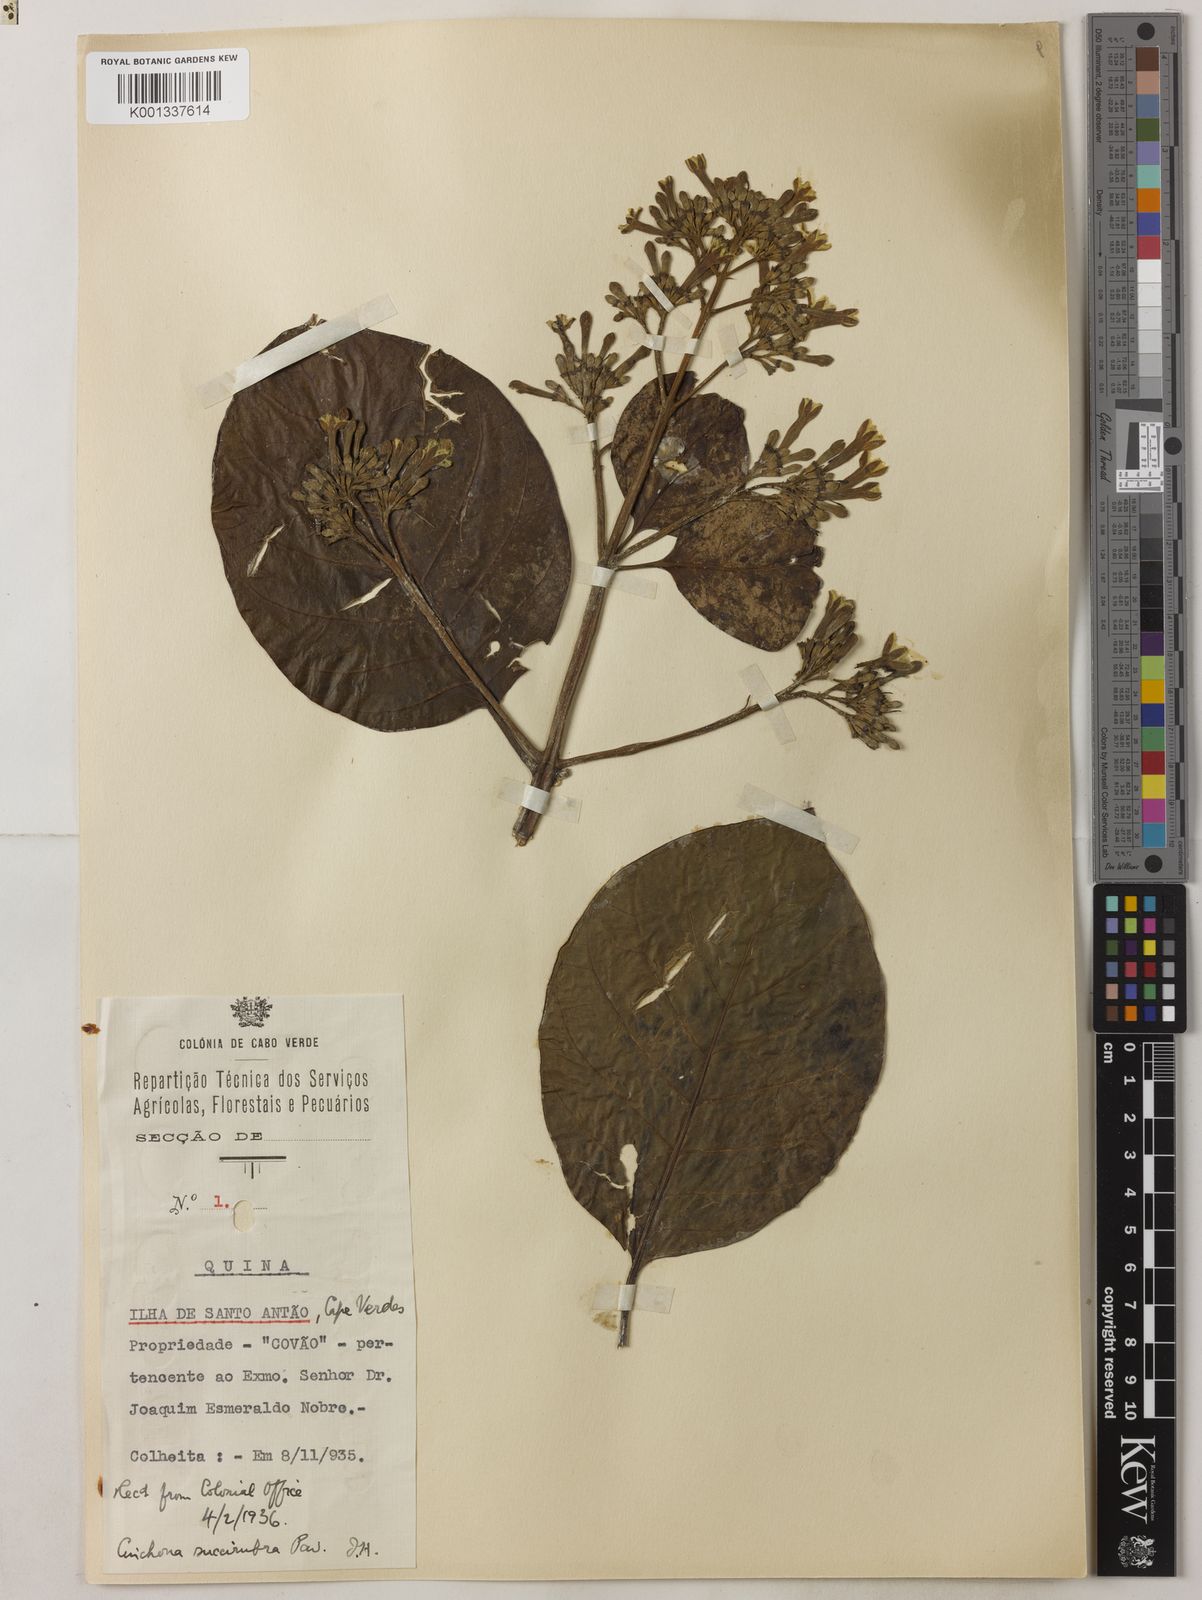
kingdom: Plantae
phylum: Tracheophyta
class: Magnoliopsida
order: Gentianales
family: Rubiaceae
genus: Cinchona
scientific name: Cinchona pubescens
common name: Quinine
